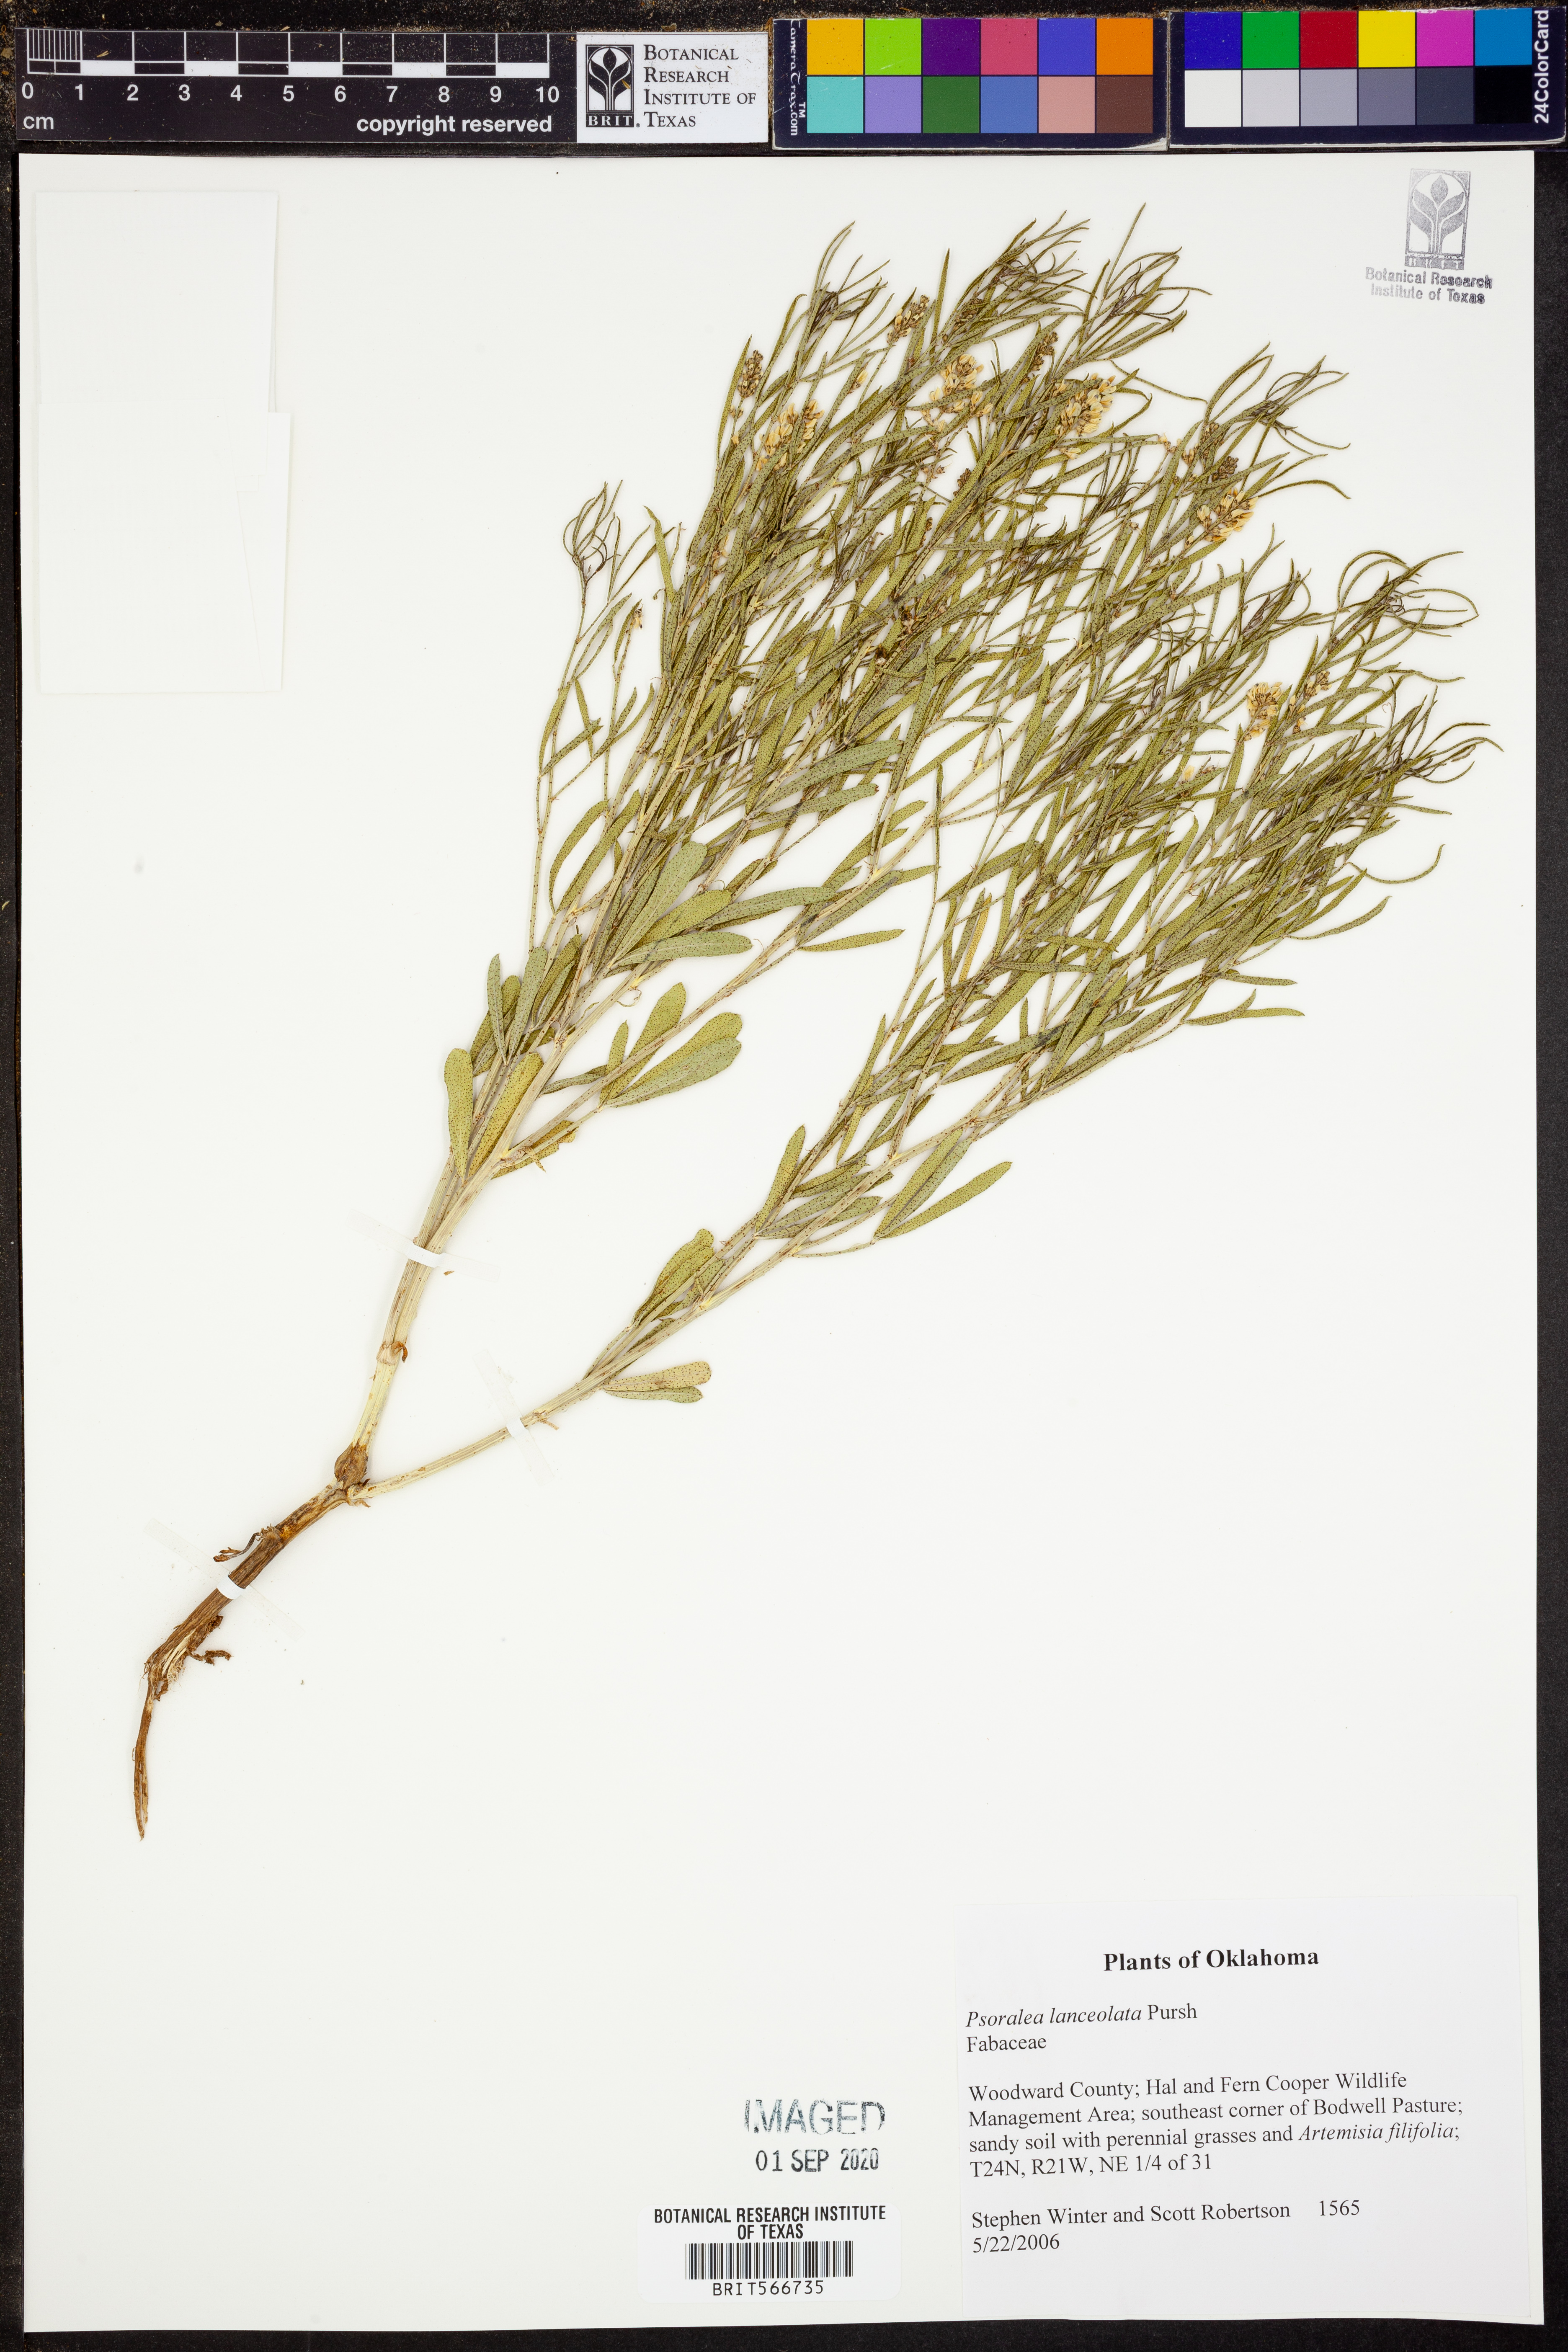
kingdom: Plantae
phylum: Tracheophyta
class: Magnoliopsida
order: Fabales
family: Fabaceae
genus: Ladeania
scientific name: Ladeania lanceolata
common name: Dune scurf-pea
